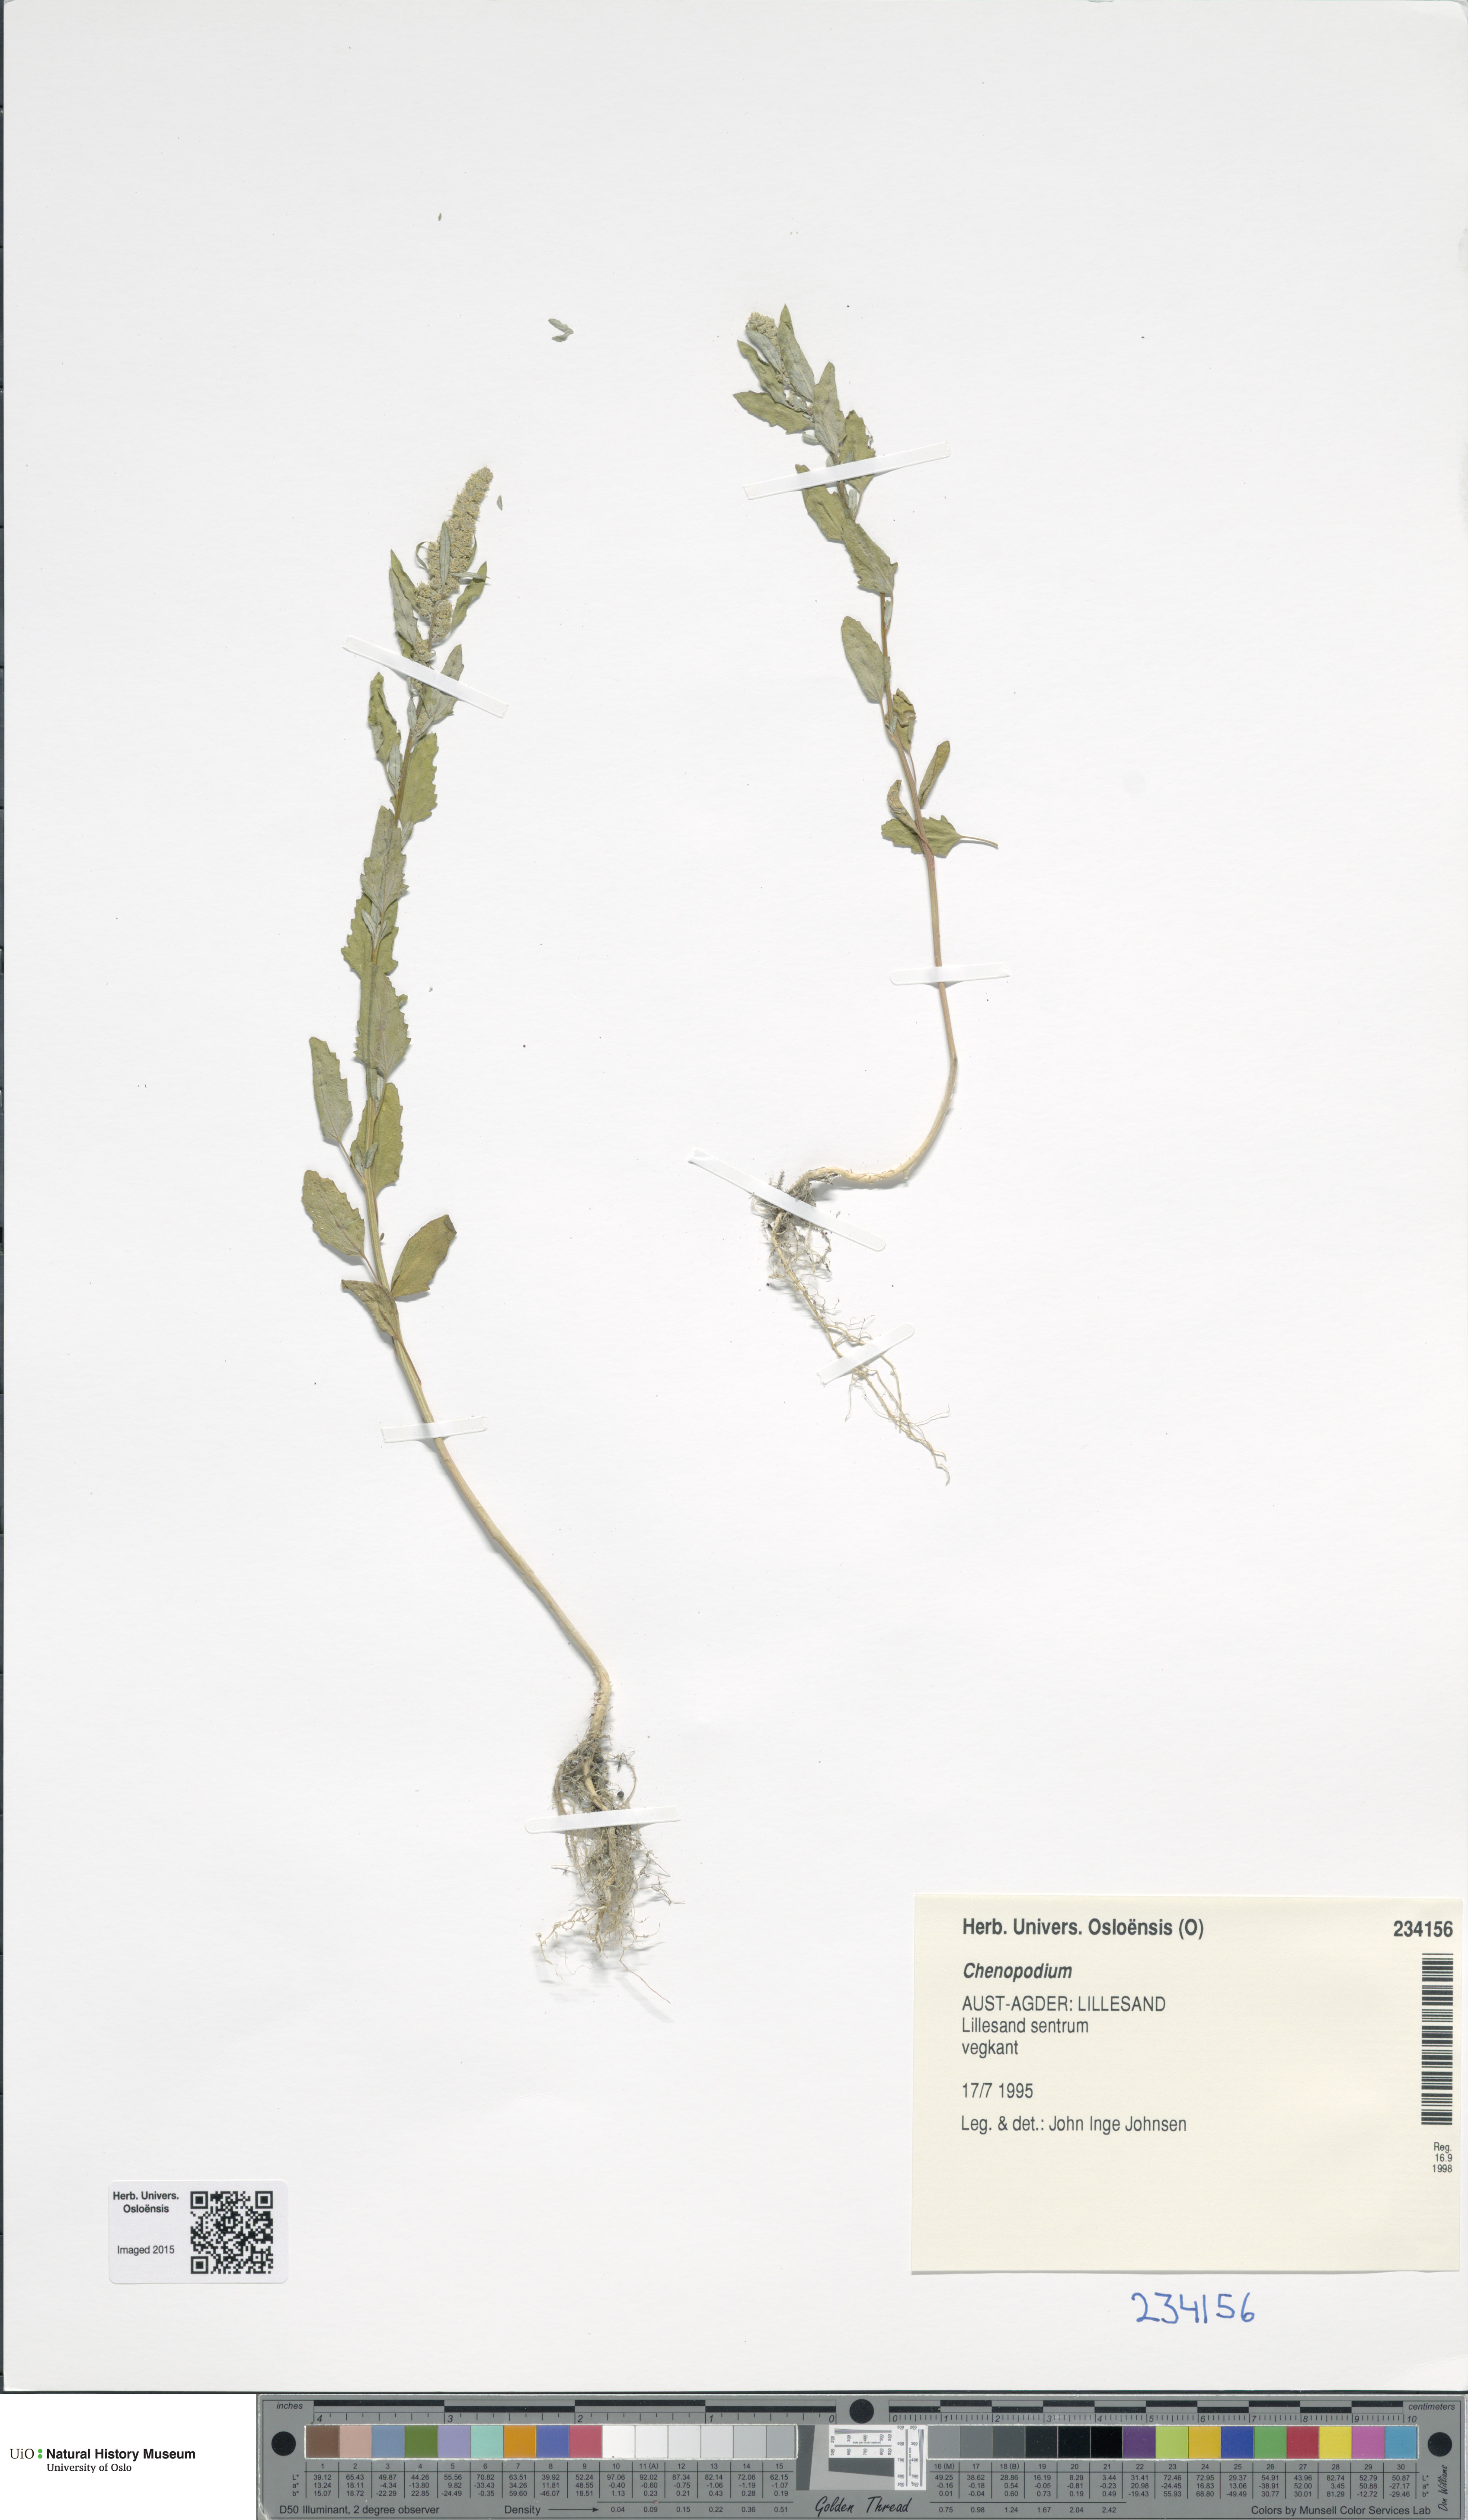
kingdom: Plantae
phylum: Tracheophyta
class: Magnoliopsida
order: Caryophyllales
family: Amaranthaceae
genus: Chenopodium
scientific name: Chenopodium
